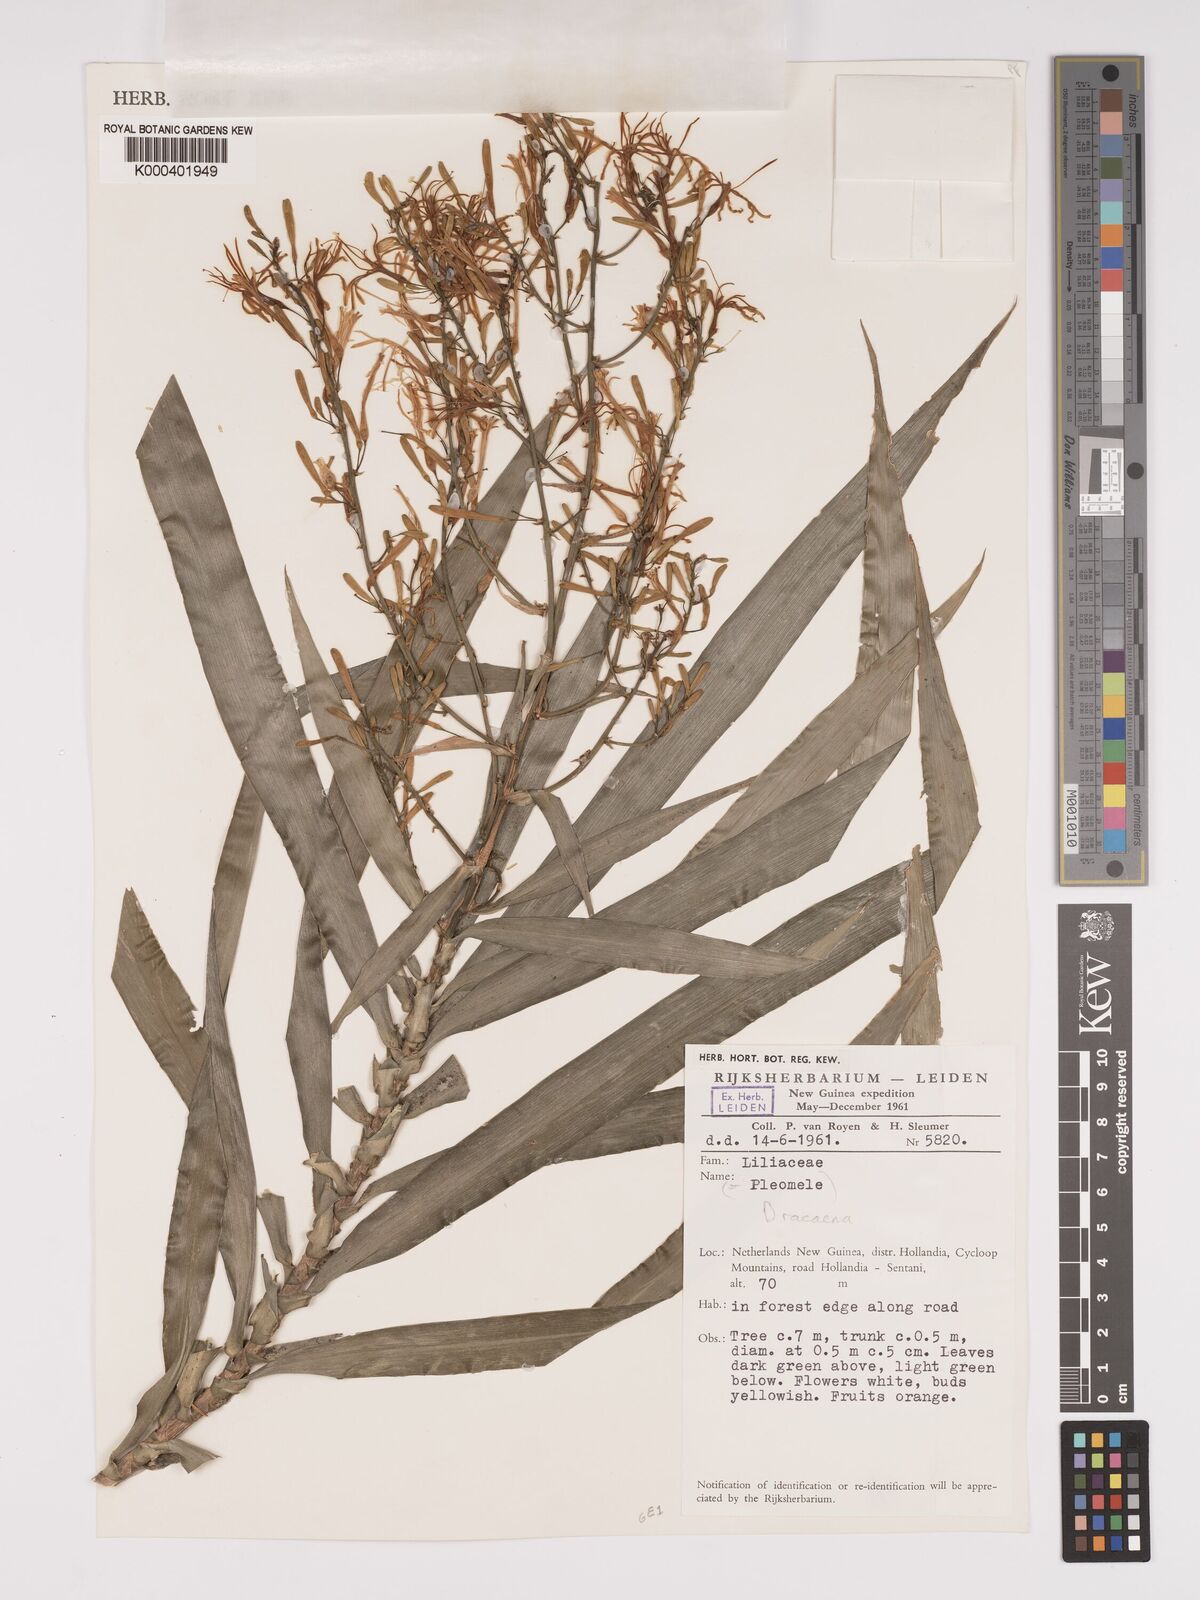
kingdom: Plantae
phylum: Tracheophyta
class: Liliopsida
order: Asparagales
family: Asparagaceae
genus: Dracaena
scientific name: Dracaena angustifolia
